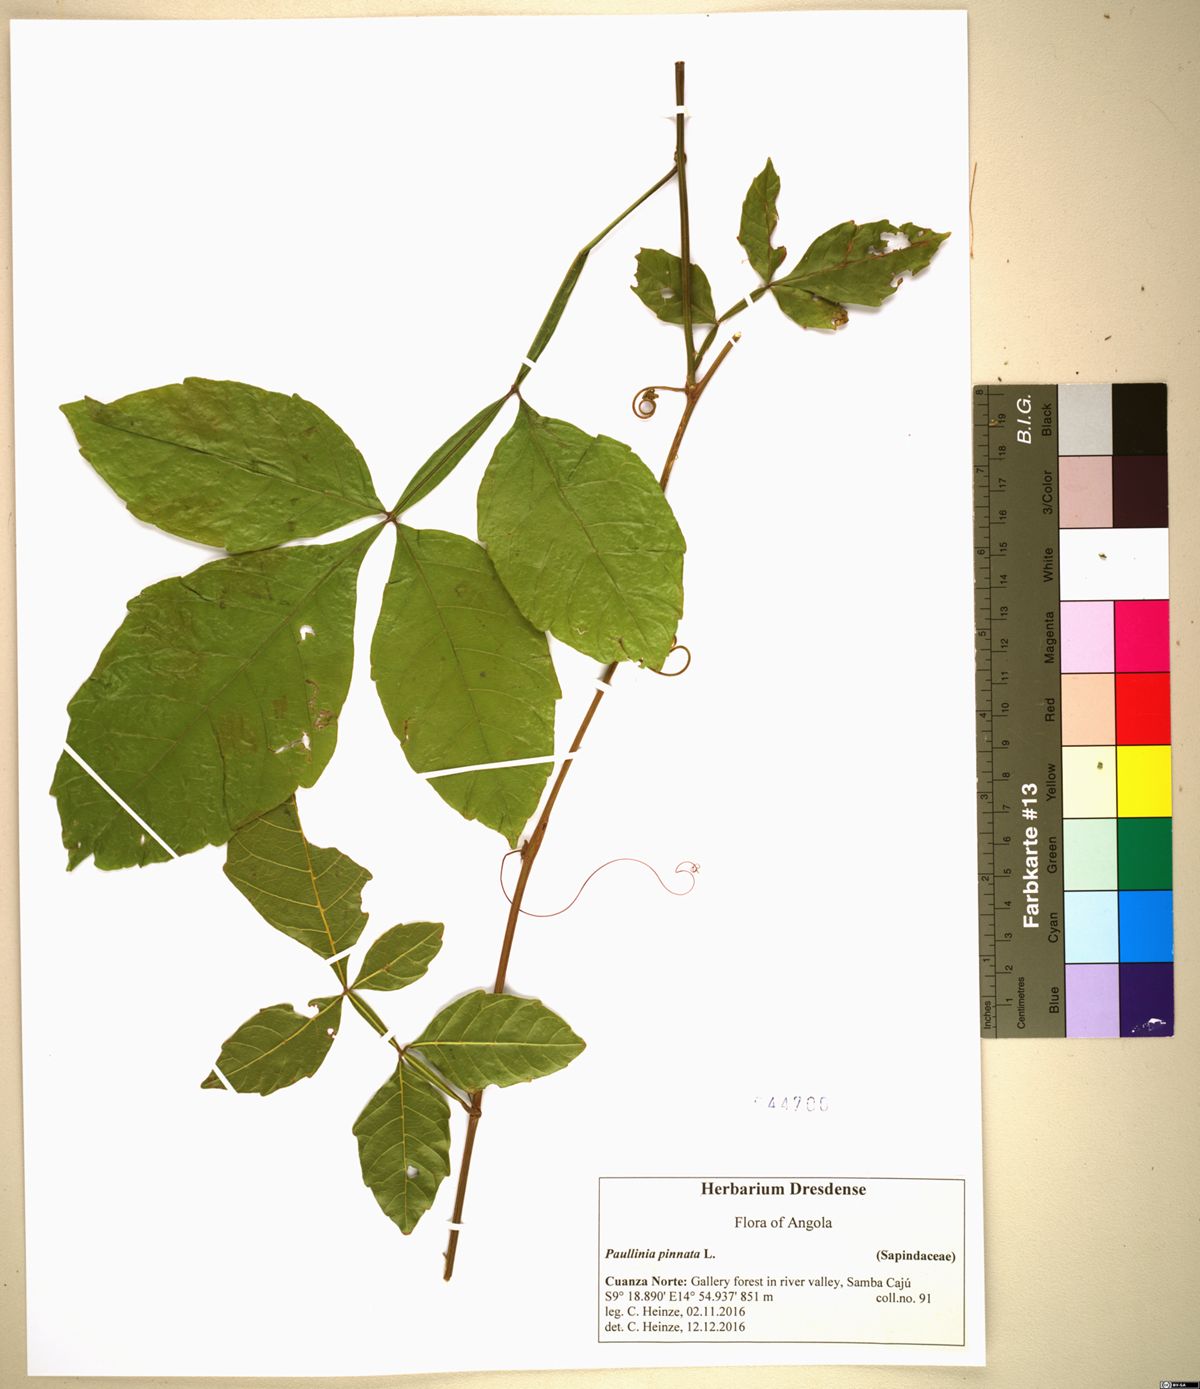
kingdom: Plantae
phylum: Tracheophyta
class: Magnoliopsida
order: Sapindales
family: Sapindaceae
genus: Paullinia
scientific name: Paullinia pinnata
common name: Barbasco
